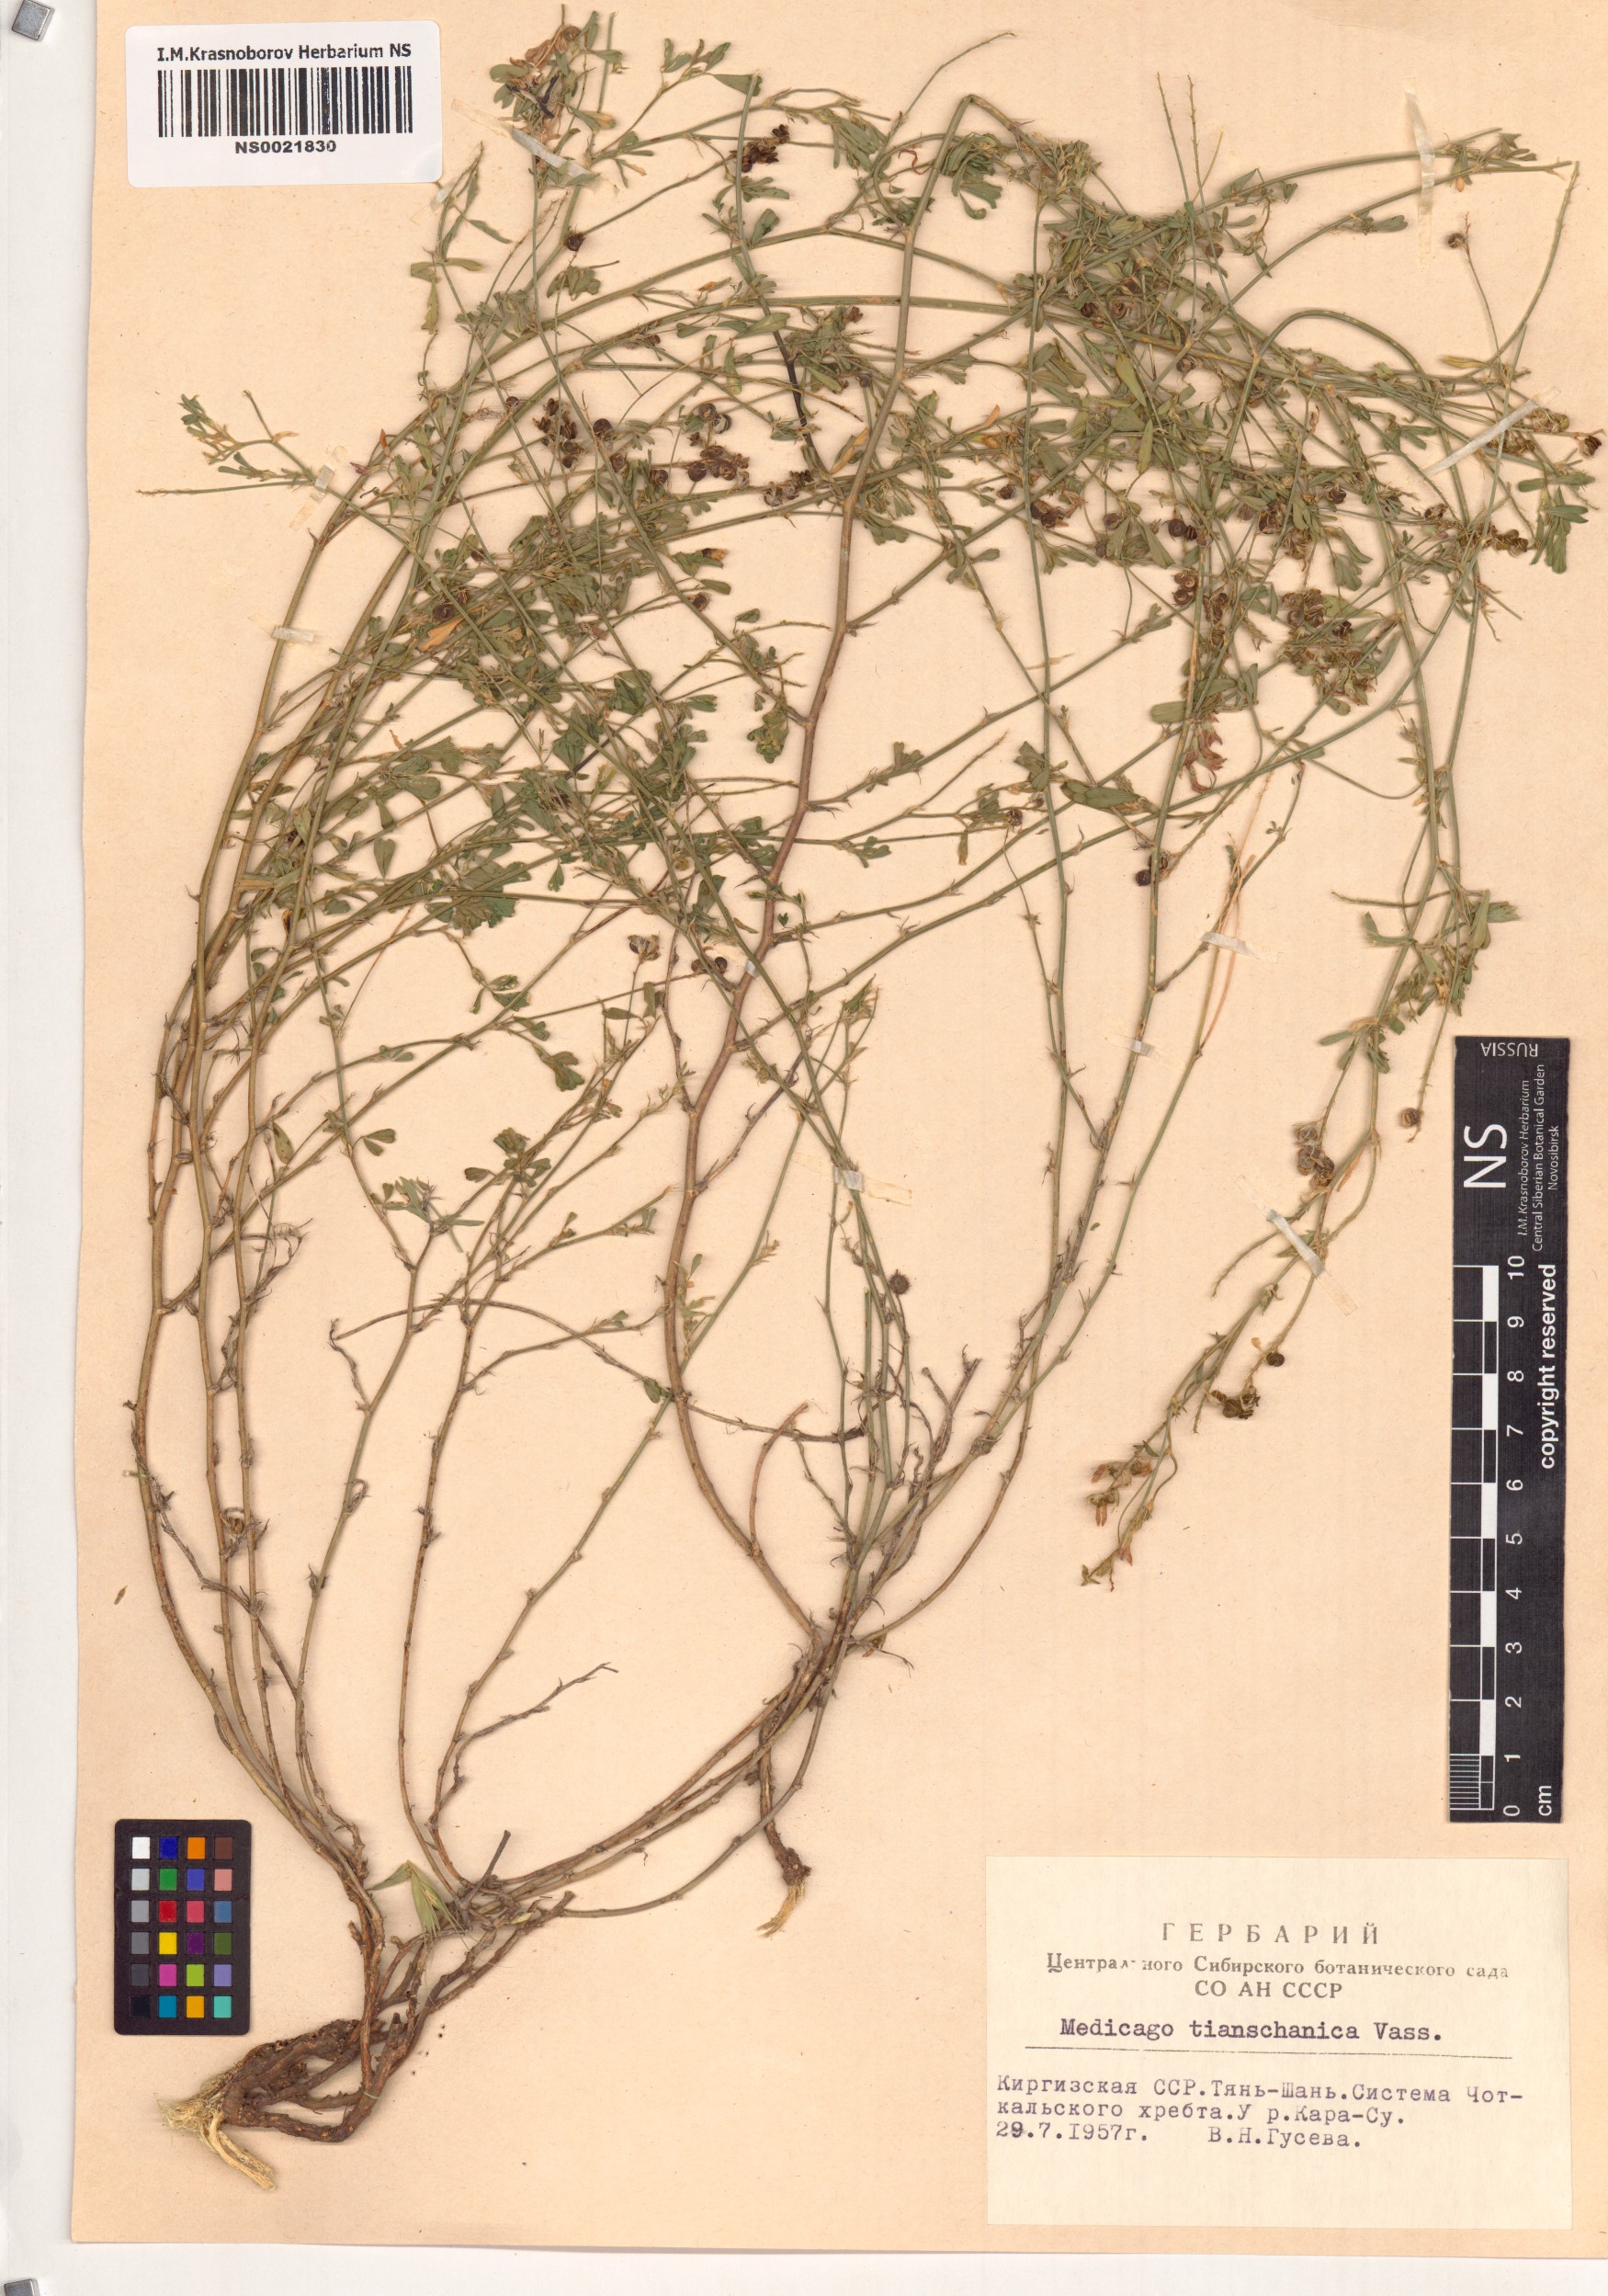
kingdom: Plantae
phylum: Tracheophyta
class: Magnoliopsida
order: Fabales
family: Fabaceae
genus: Medicago
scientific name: Medicago varia
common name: Sand lucerne
